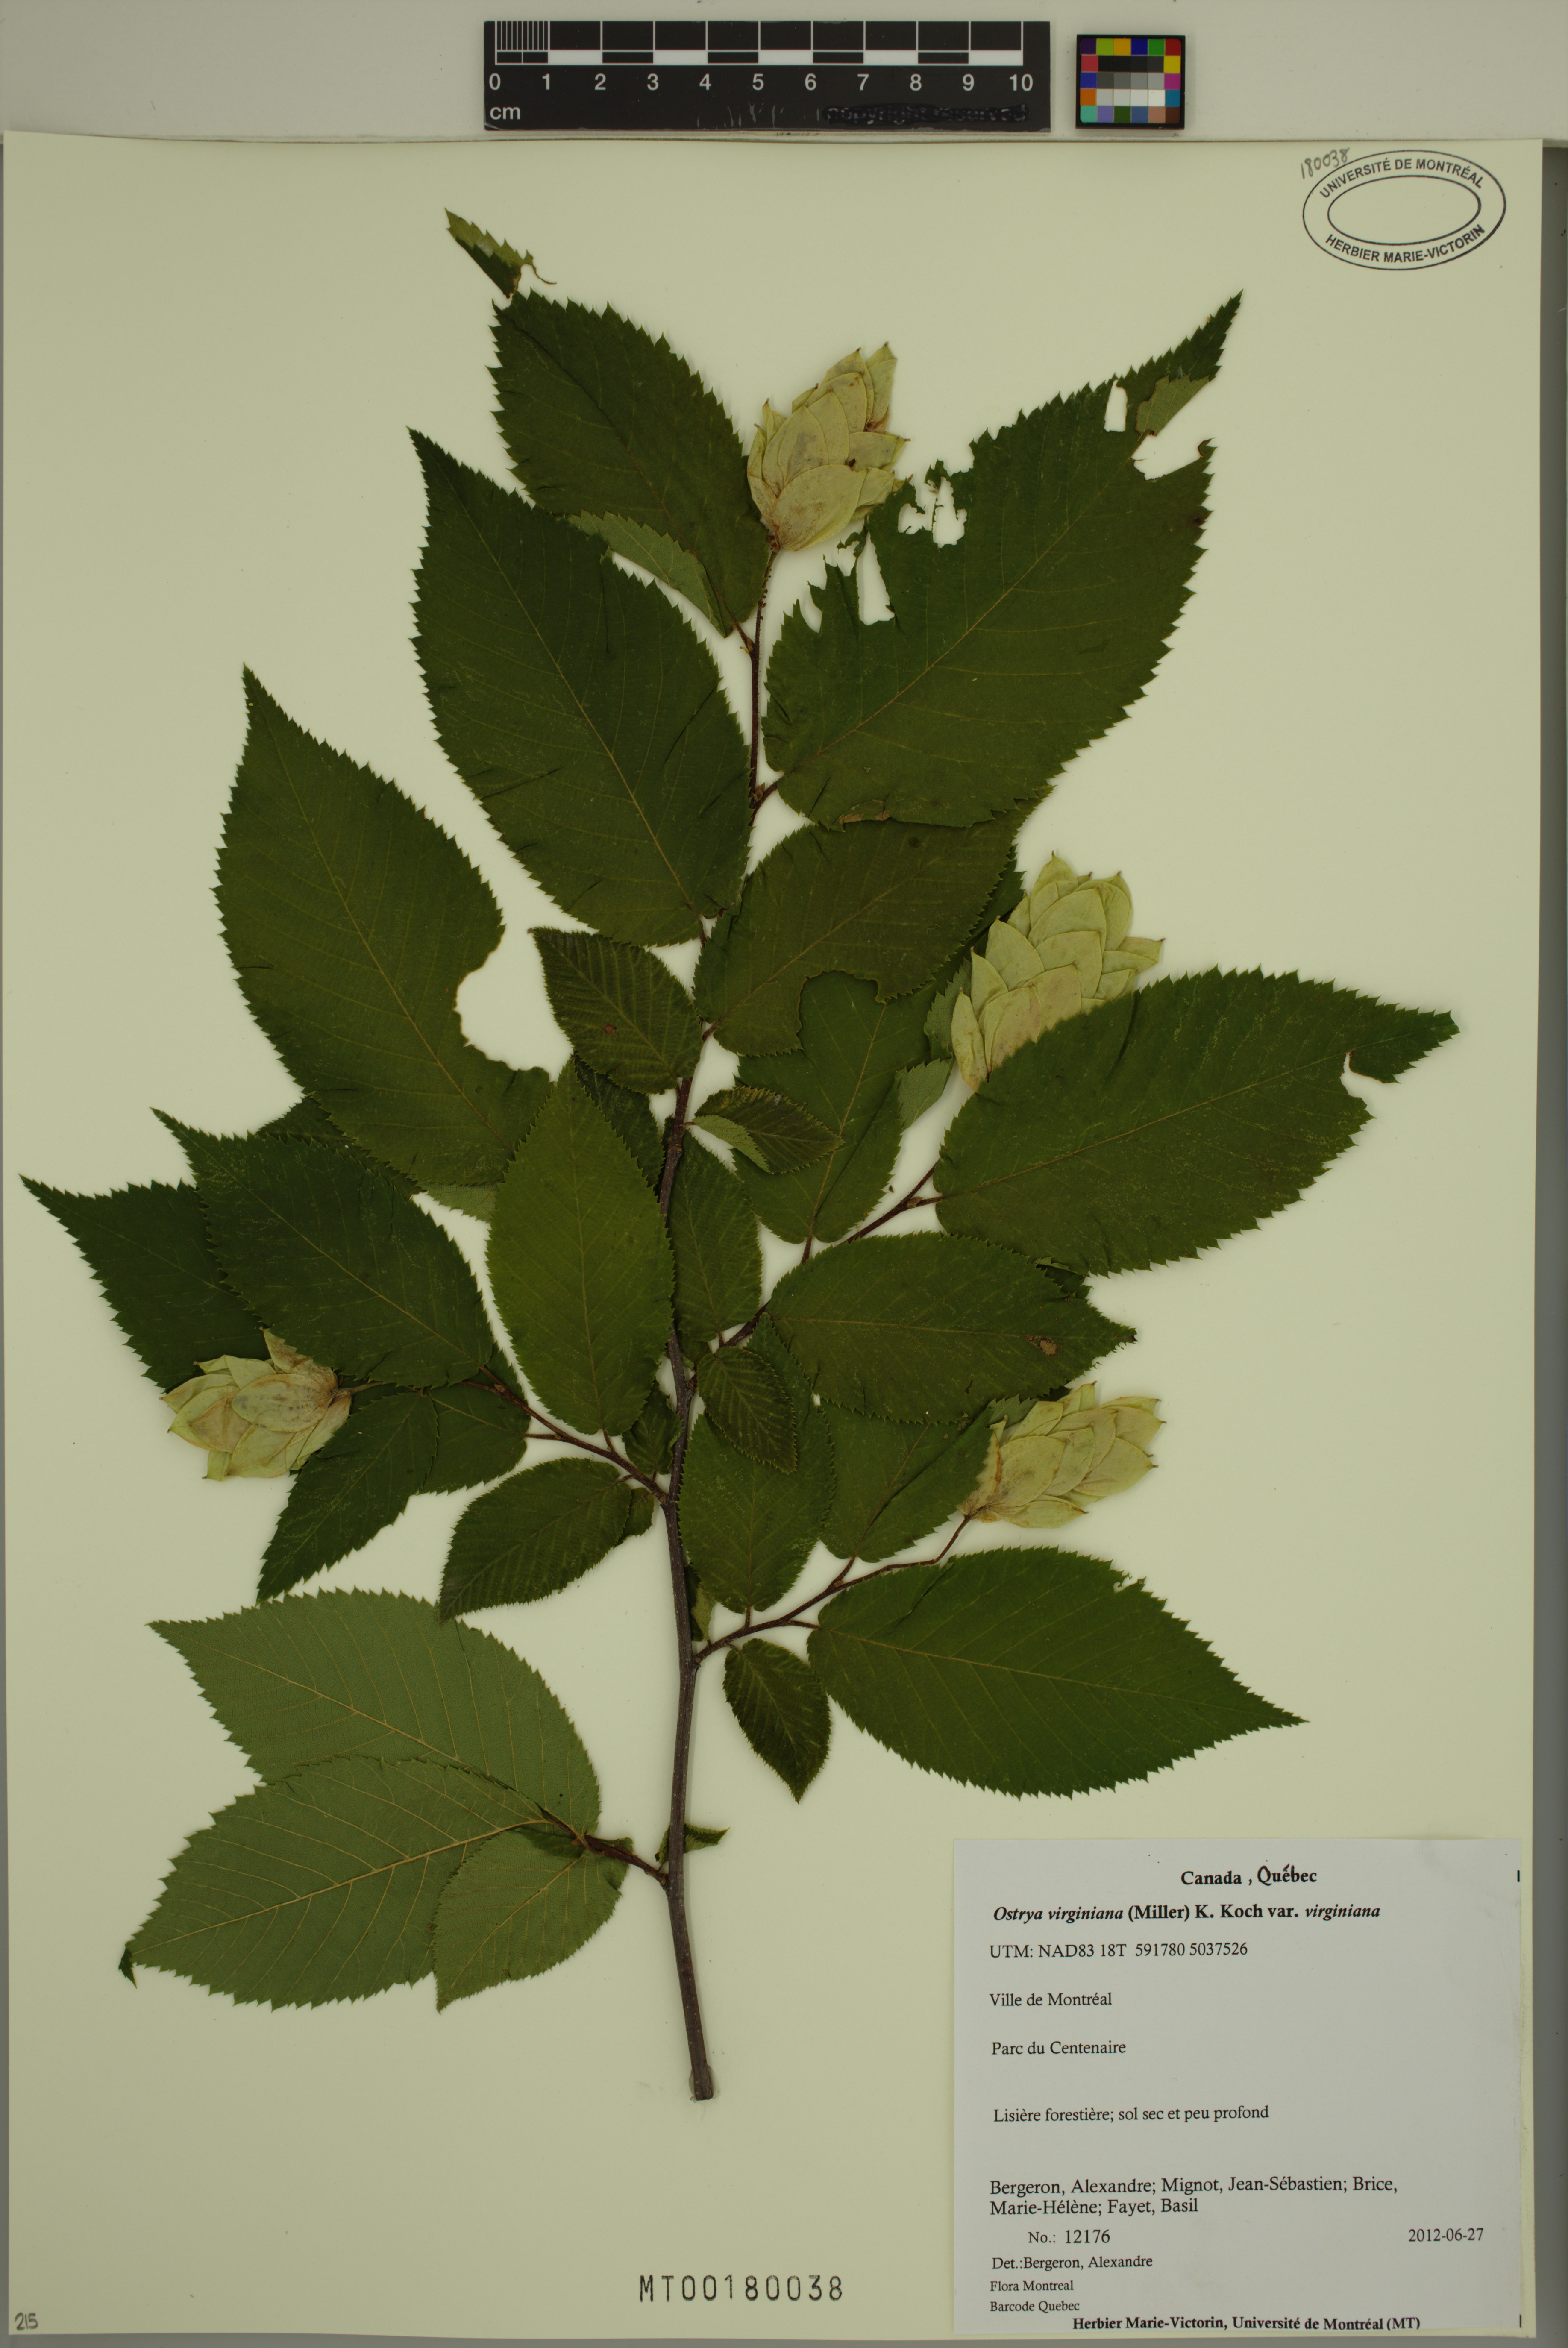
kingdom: Plantae
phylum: Tracheophyta
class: Magnoliopsida
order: Fagales
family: Betulaceae
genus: Ostrya
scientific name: Ostrya virginiana
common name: Ironwood
